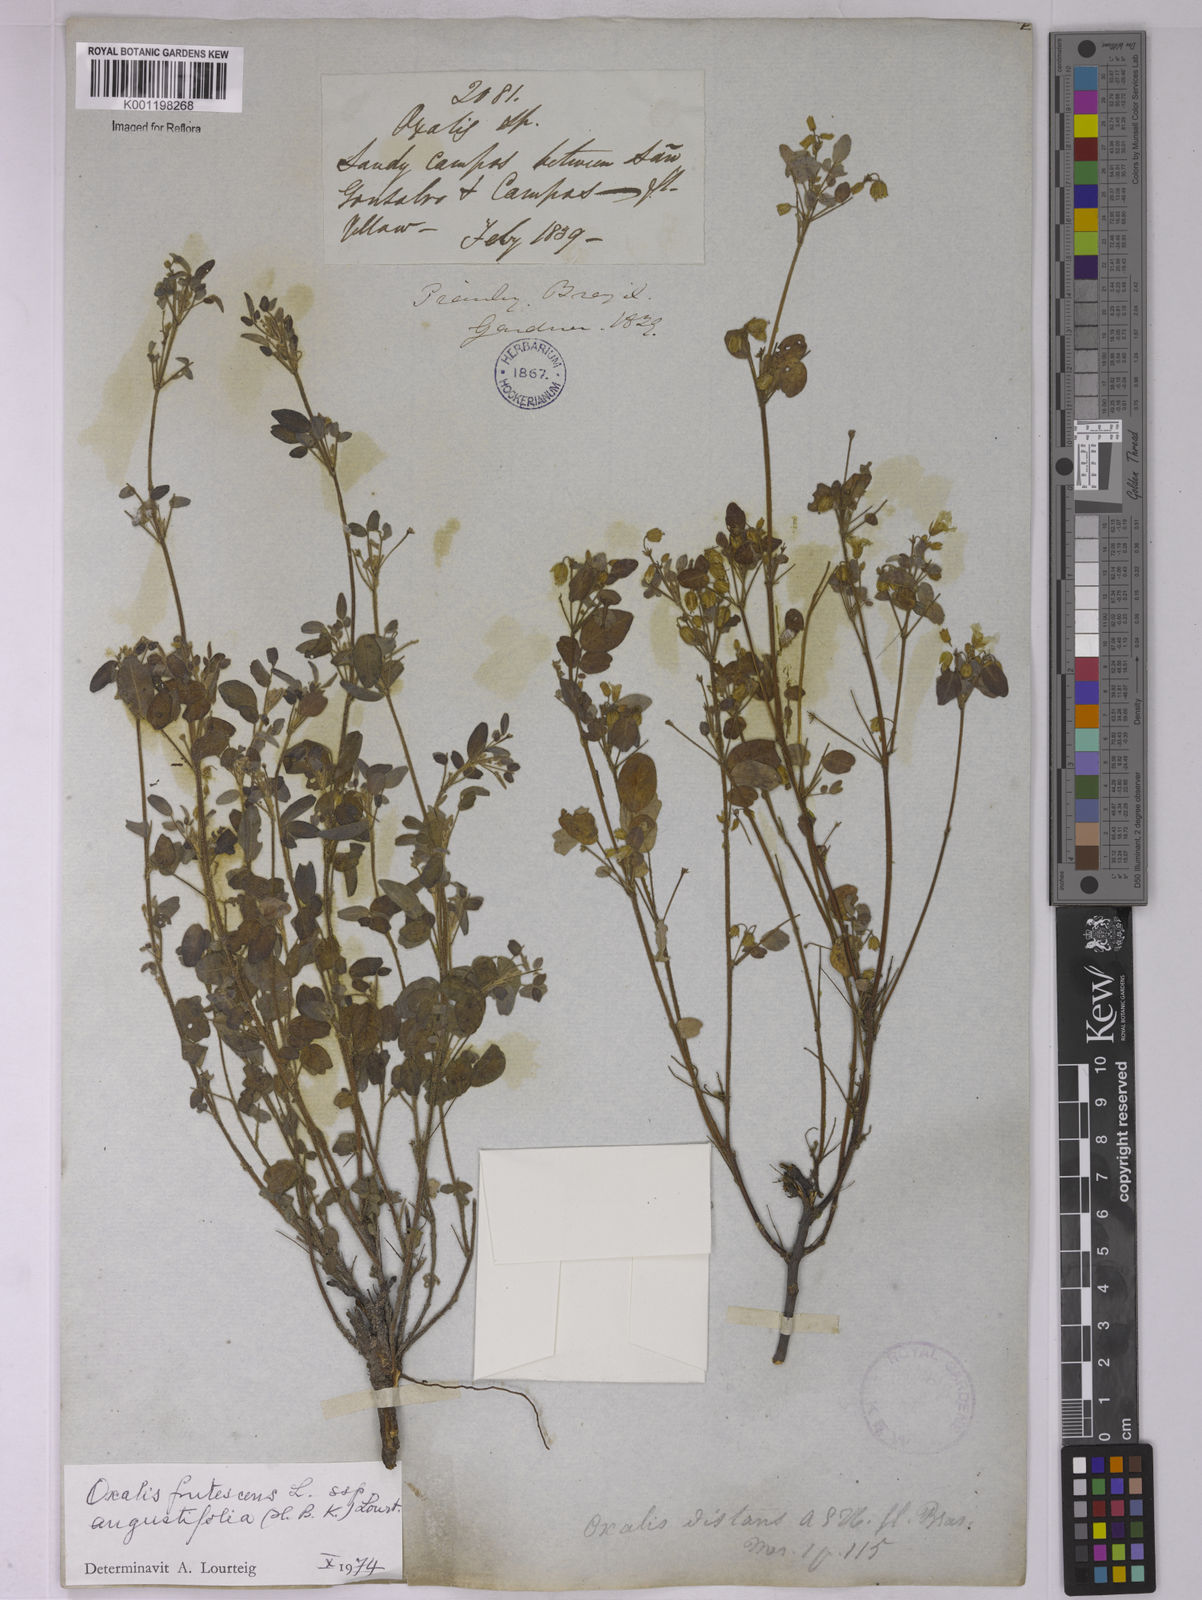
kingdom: Plantae
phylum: Tracheophyta
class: Magnoliopsida
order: Oxalidales
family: Oxalidaceae
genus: Oxalis
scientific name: Oxalis frutescens
